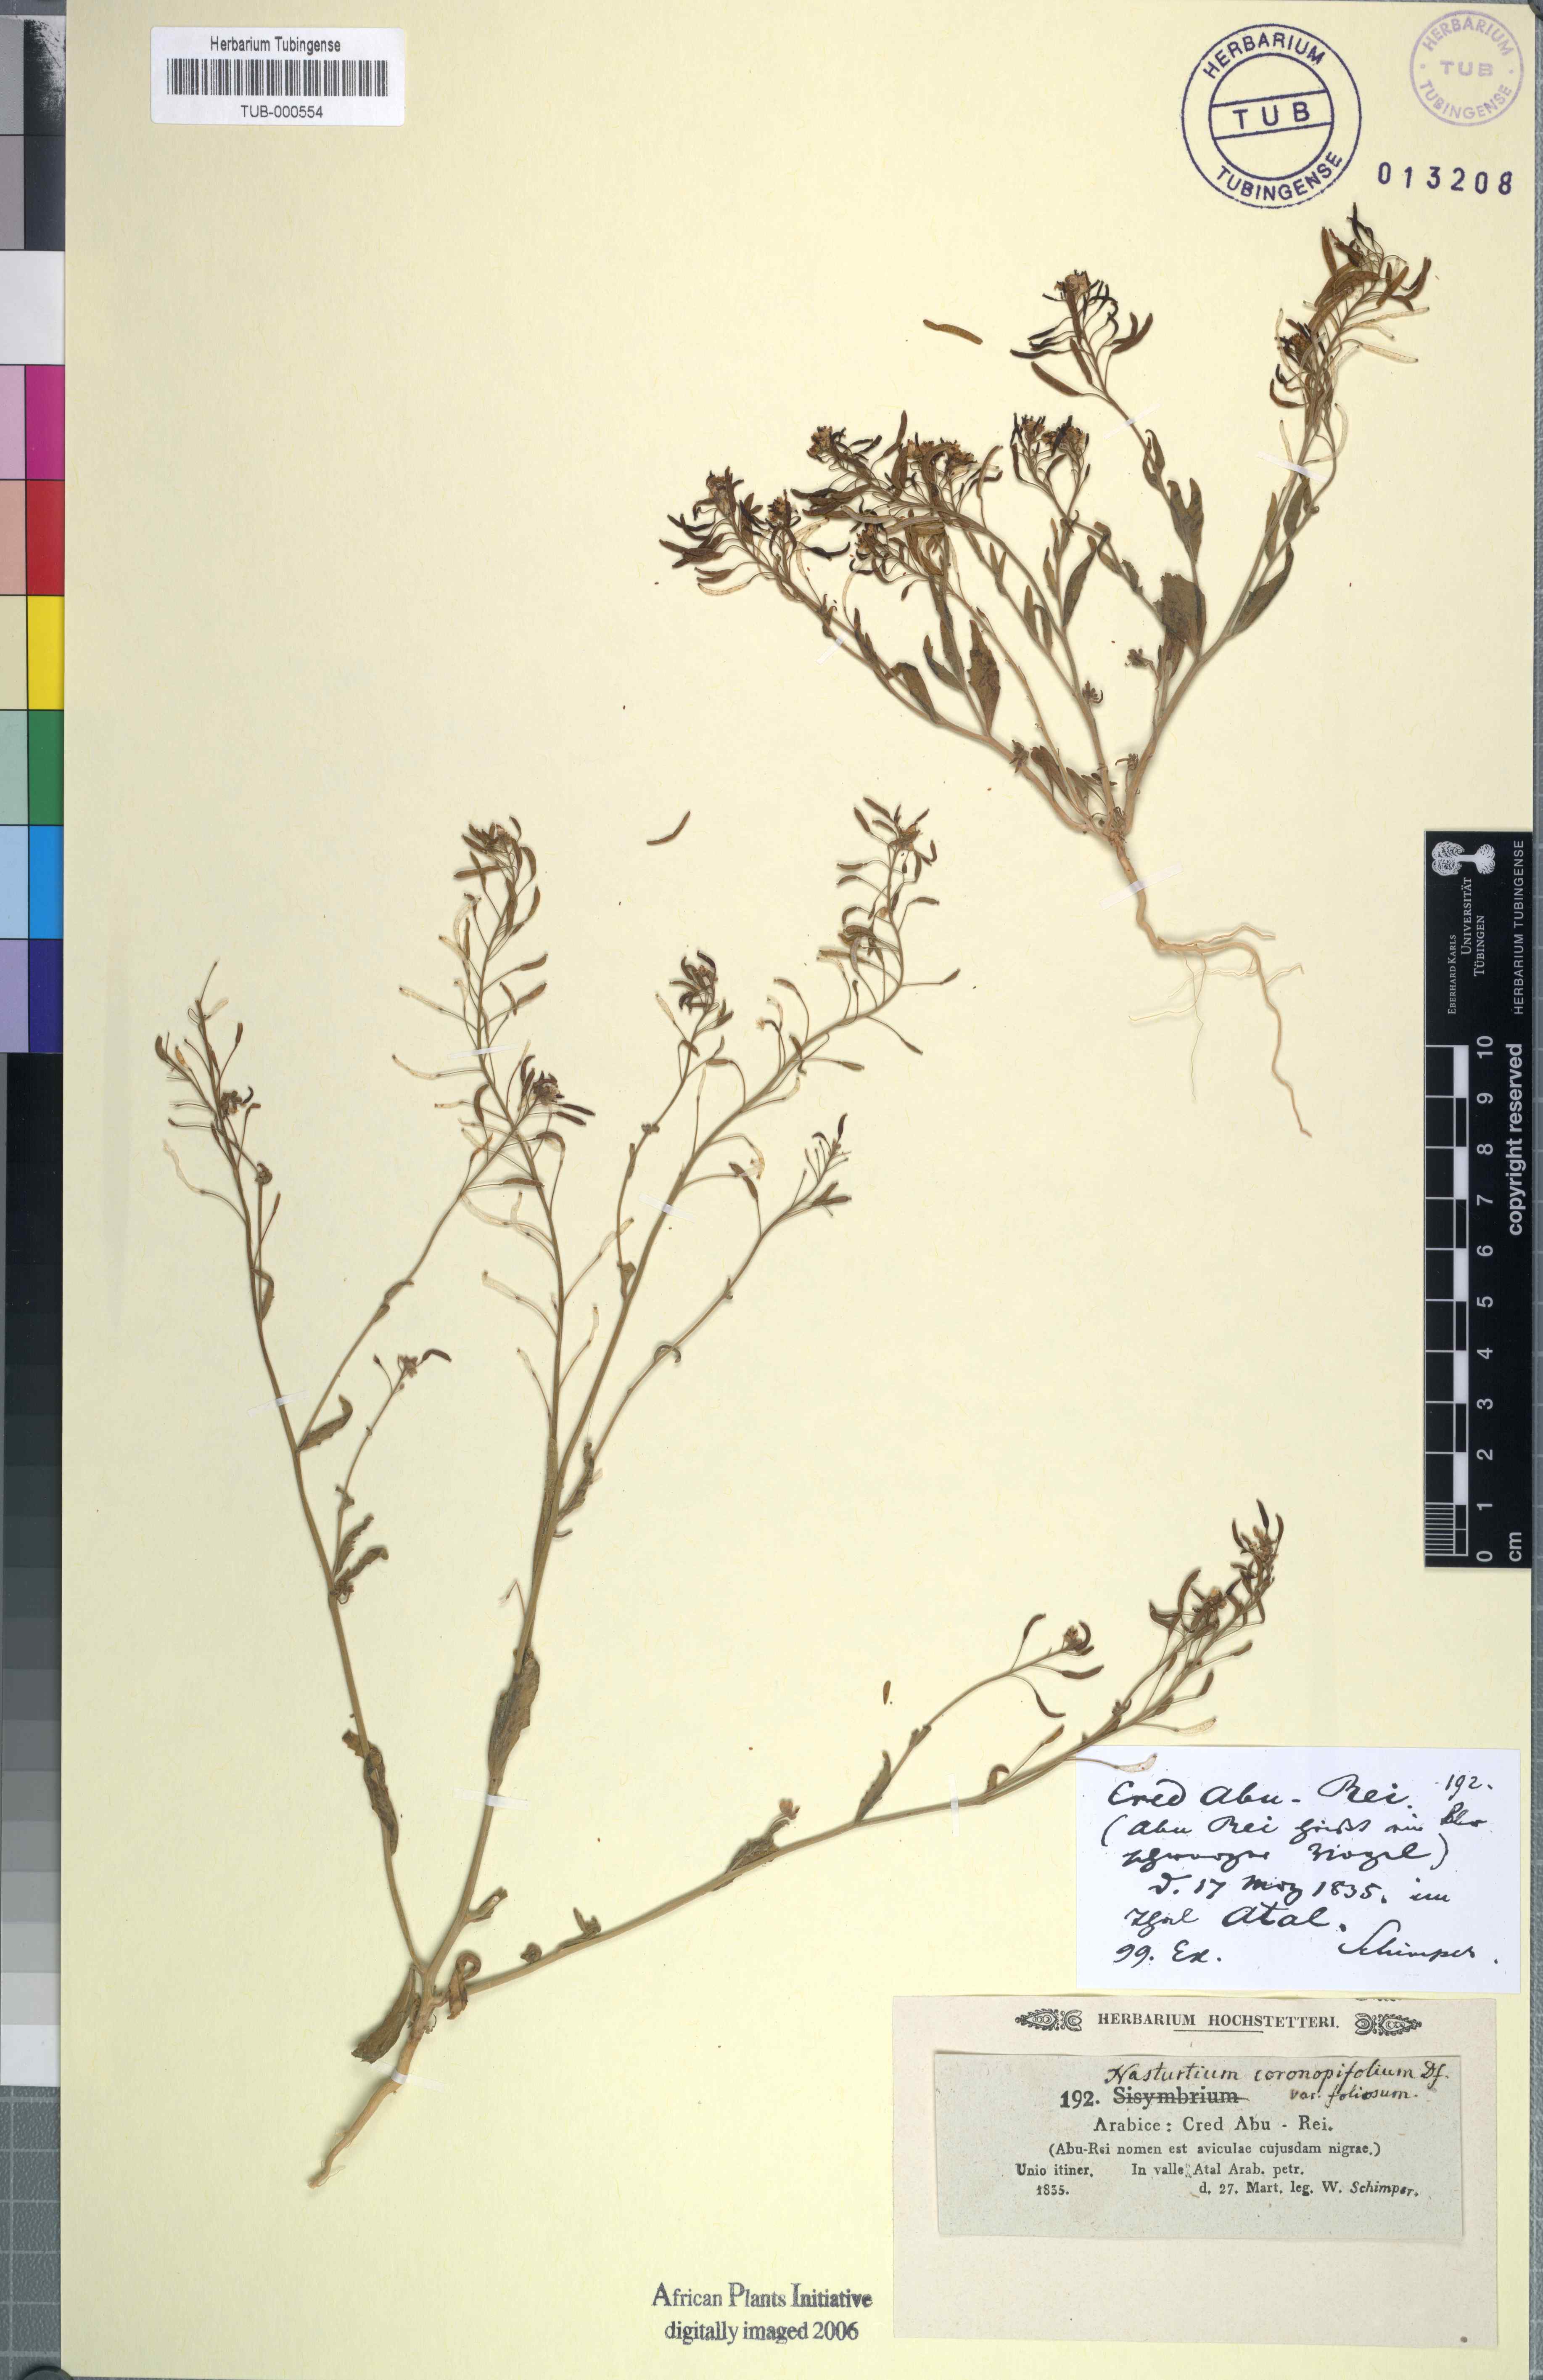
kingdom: Plantae
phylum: Tracheophyta
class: Magnoliopsida
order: Brassicales
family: Brassicaceae
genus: Nasturtiopsis
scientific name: Nasturtiopsis coronopifolia
